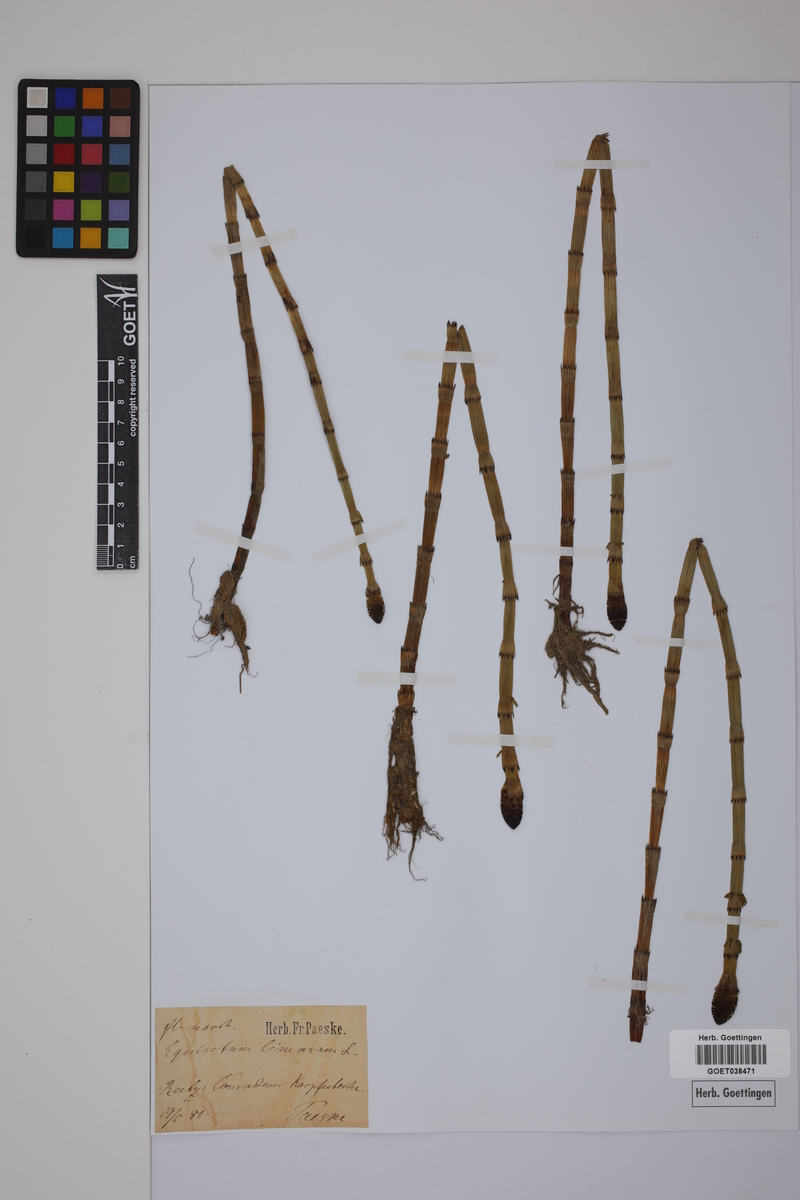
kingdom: Plantae
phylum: Tracheophyta
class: Polypodiopsida
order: Equisetales
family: Equisetaceae
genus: Equisetum
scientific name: Equisetum fluviatile
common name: Water horsetail
